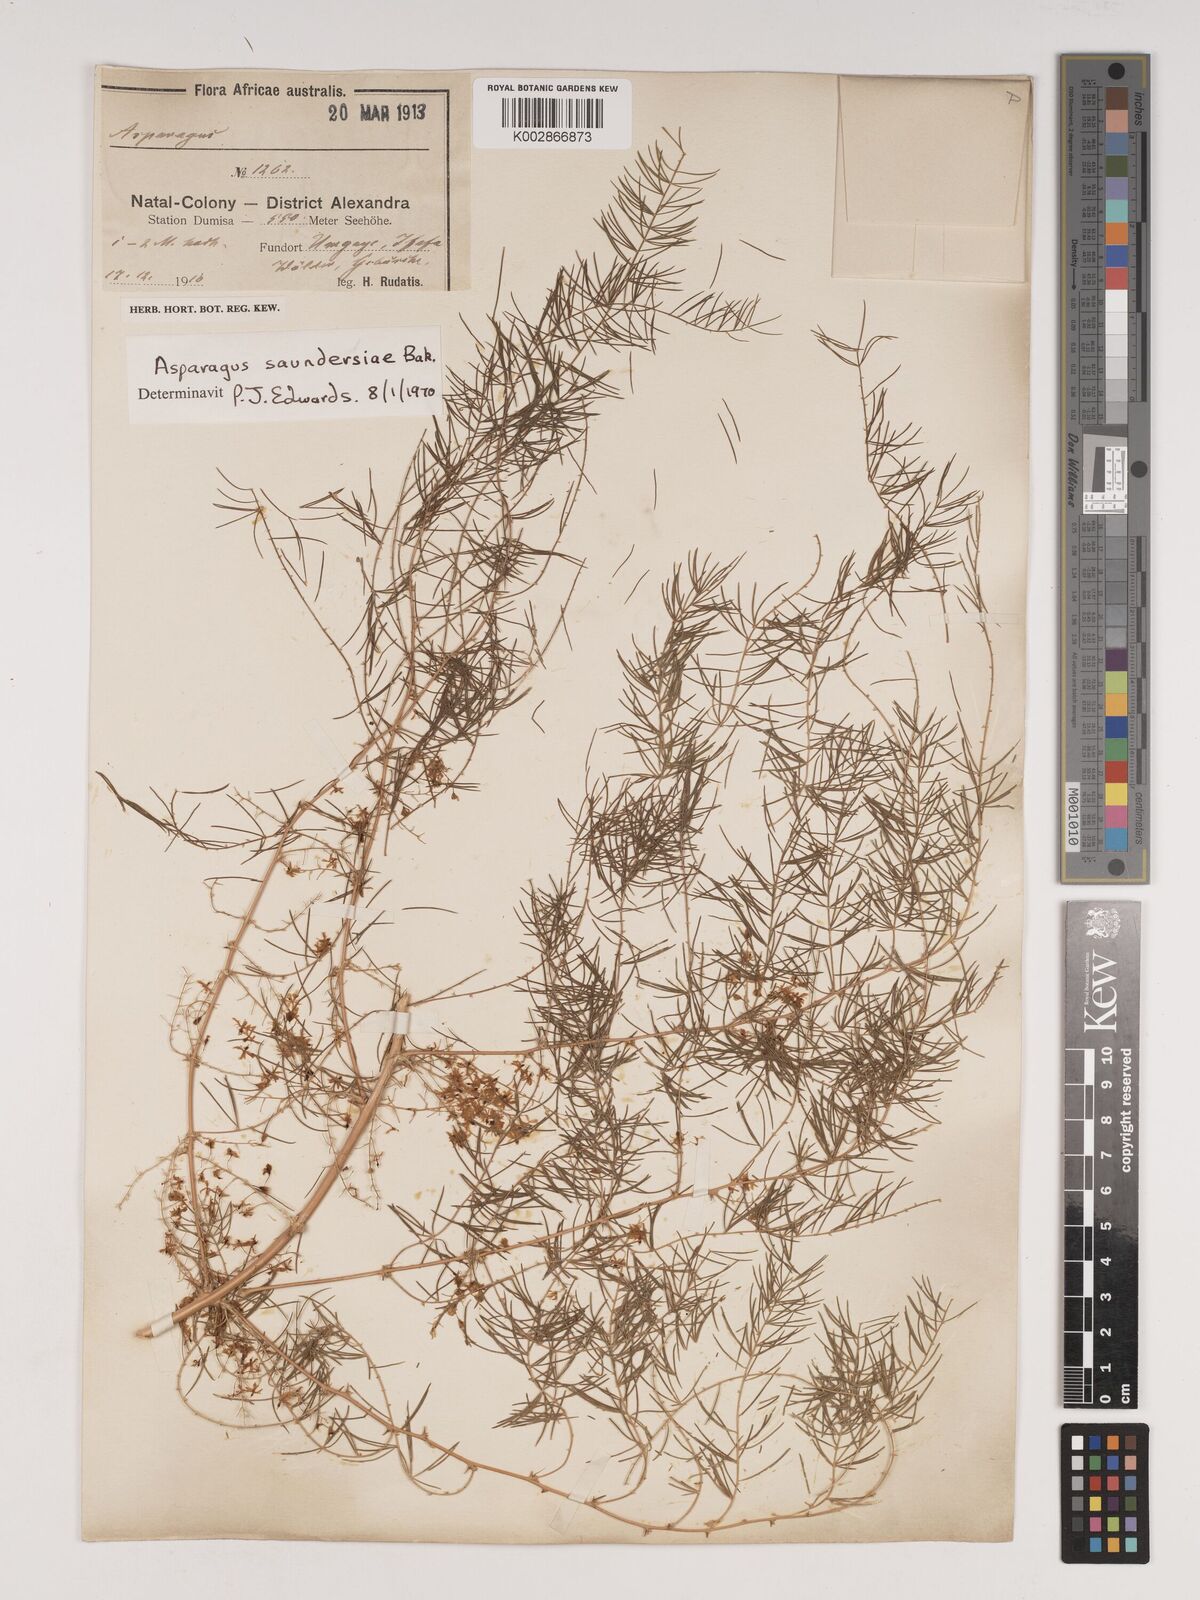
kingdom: Plantae
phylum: Tracheophyta
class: Liliopsida
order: Asparagales
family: Asparagaceae
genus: Asparagus
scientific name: Asparagus saundersiae
